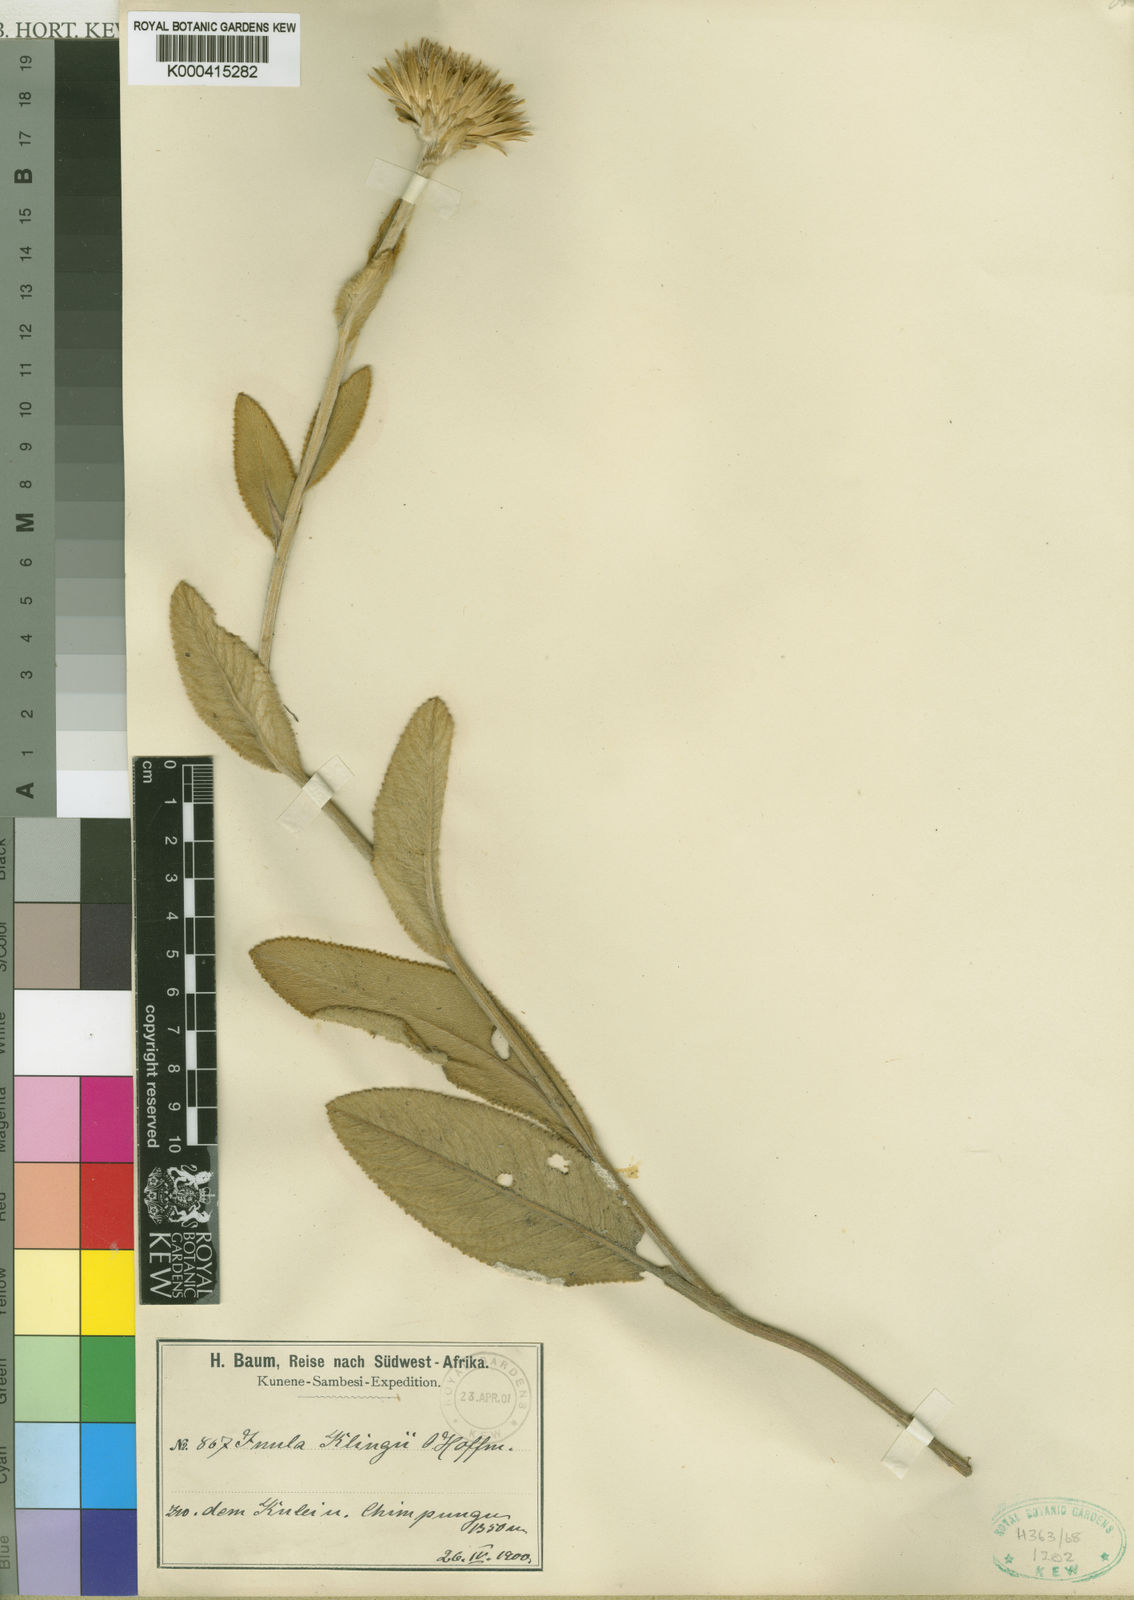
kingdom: Plantae
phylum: Tracheophyta
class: Magnoliopsida
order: Asterales
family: Asteraceae
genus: Inula
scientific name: Inula klingii
